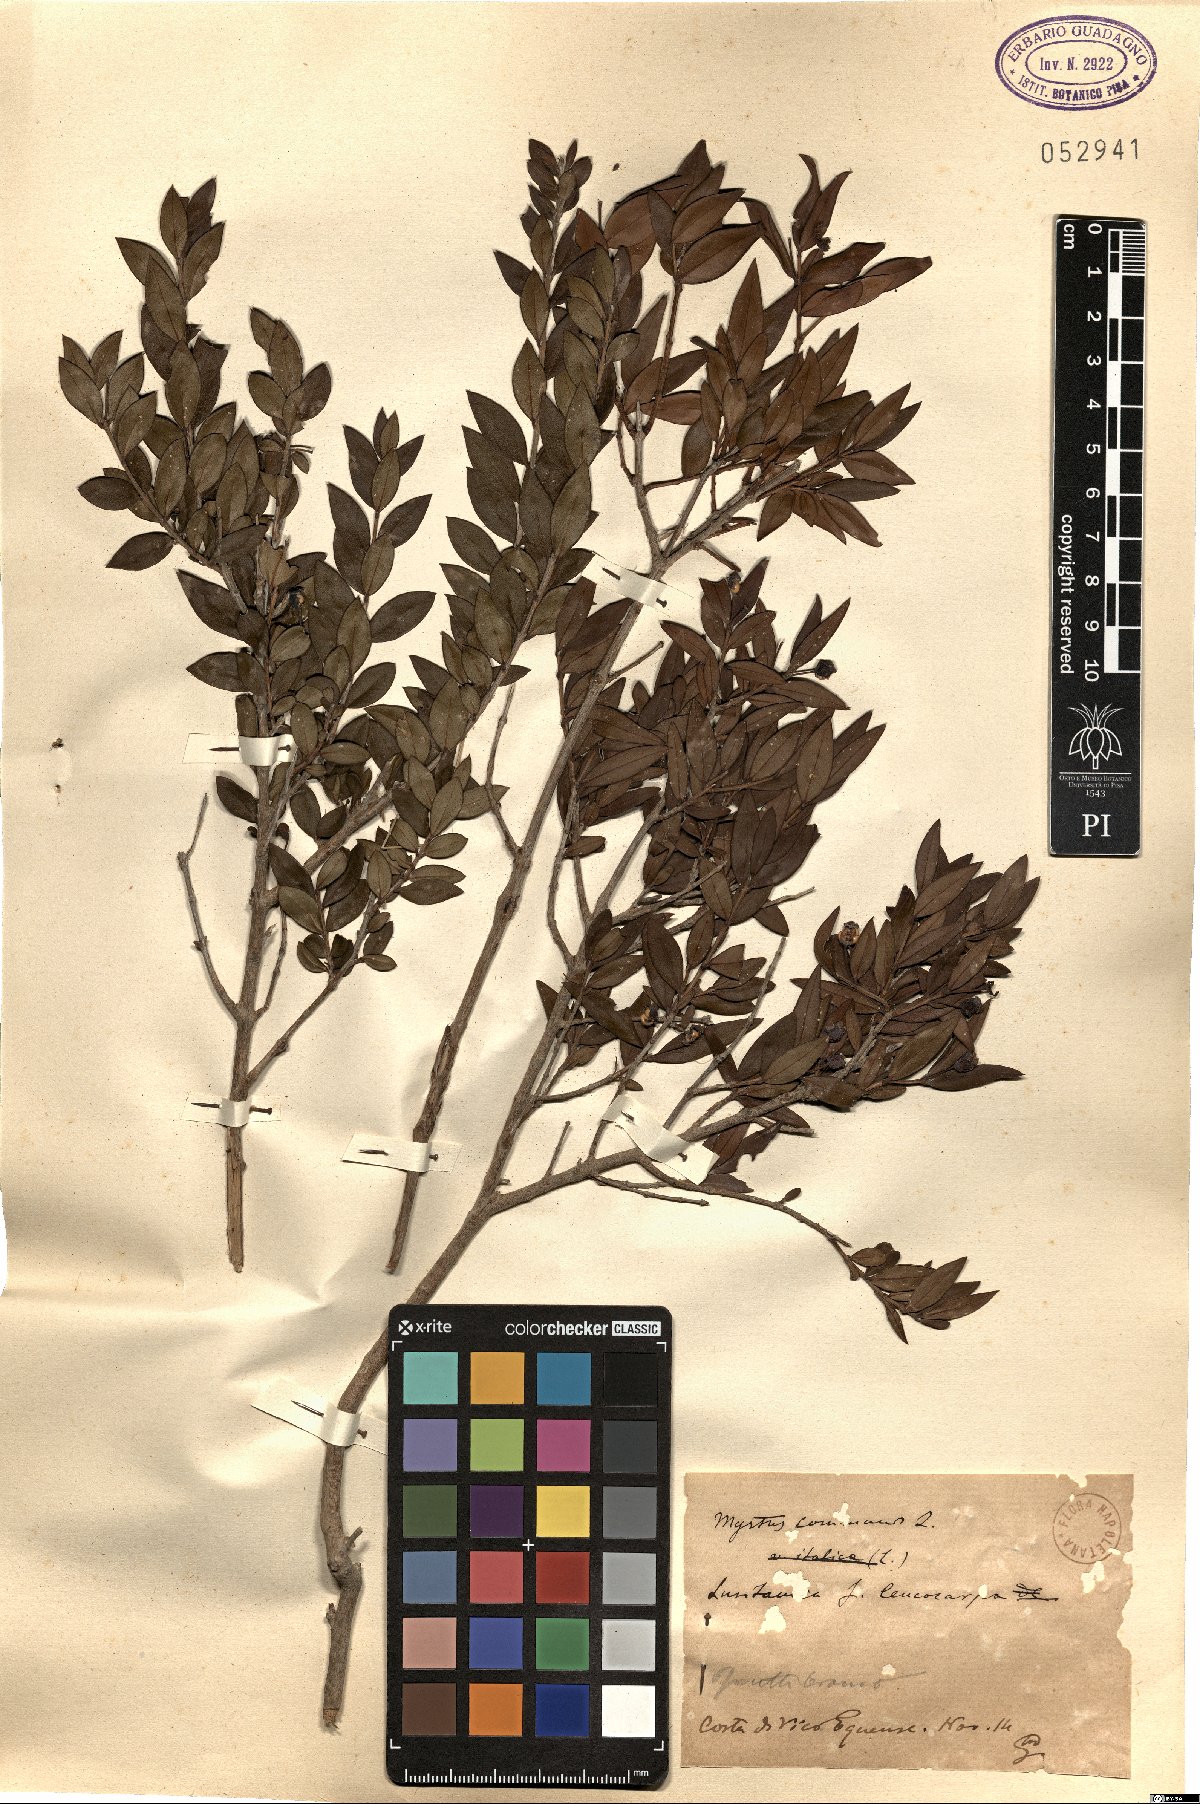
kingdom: Plantae
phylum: Tracheophyta
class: Magnoliopsida
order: Myrtales
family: Myrtaceae
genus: Myrtus
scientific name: Myrtus communis
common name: Myrtle
